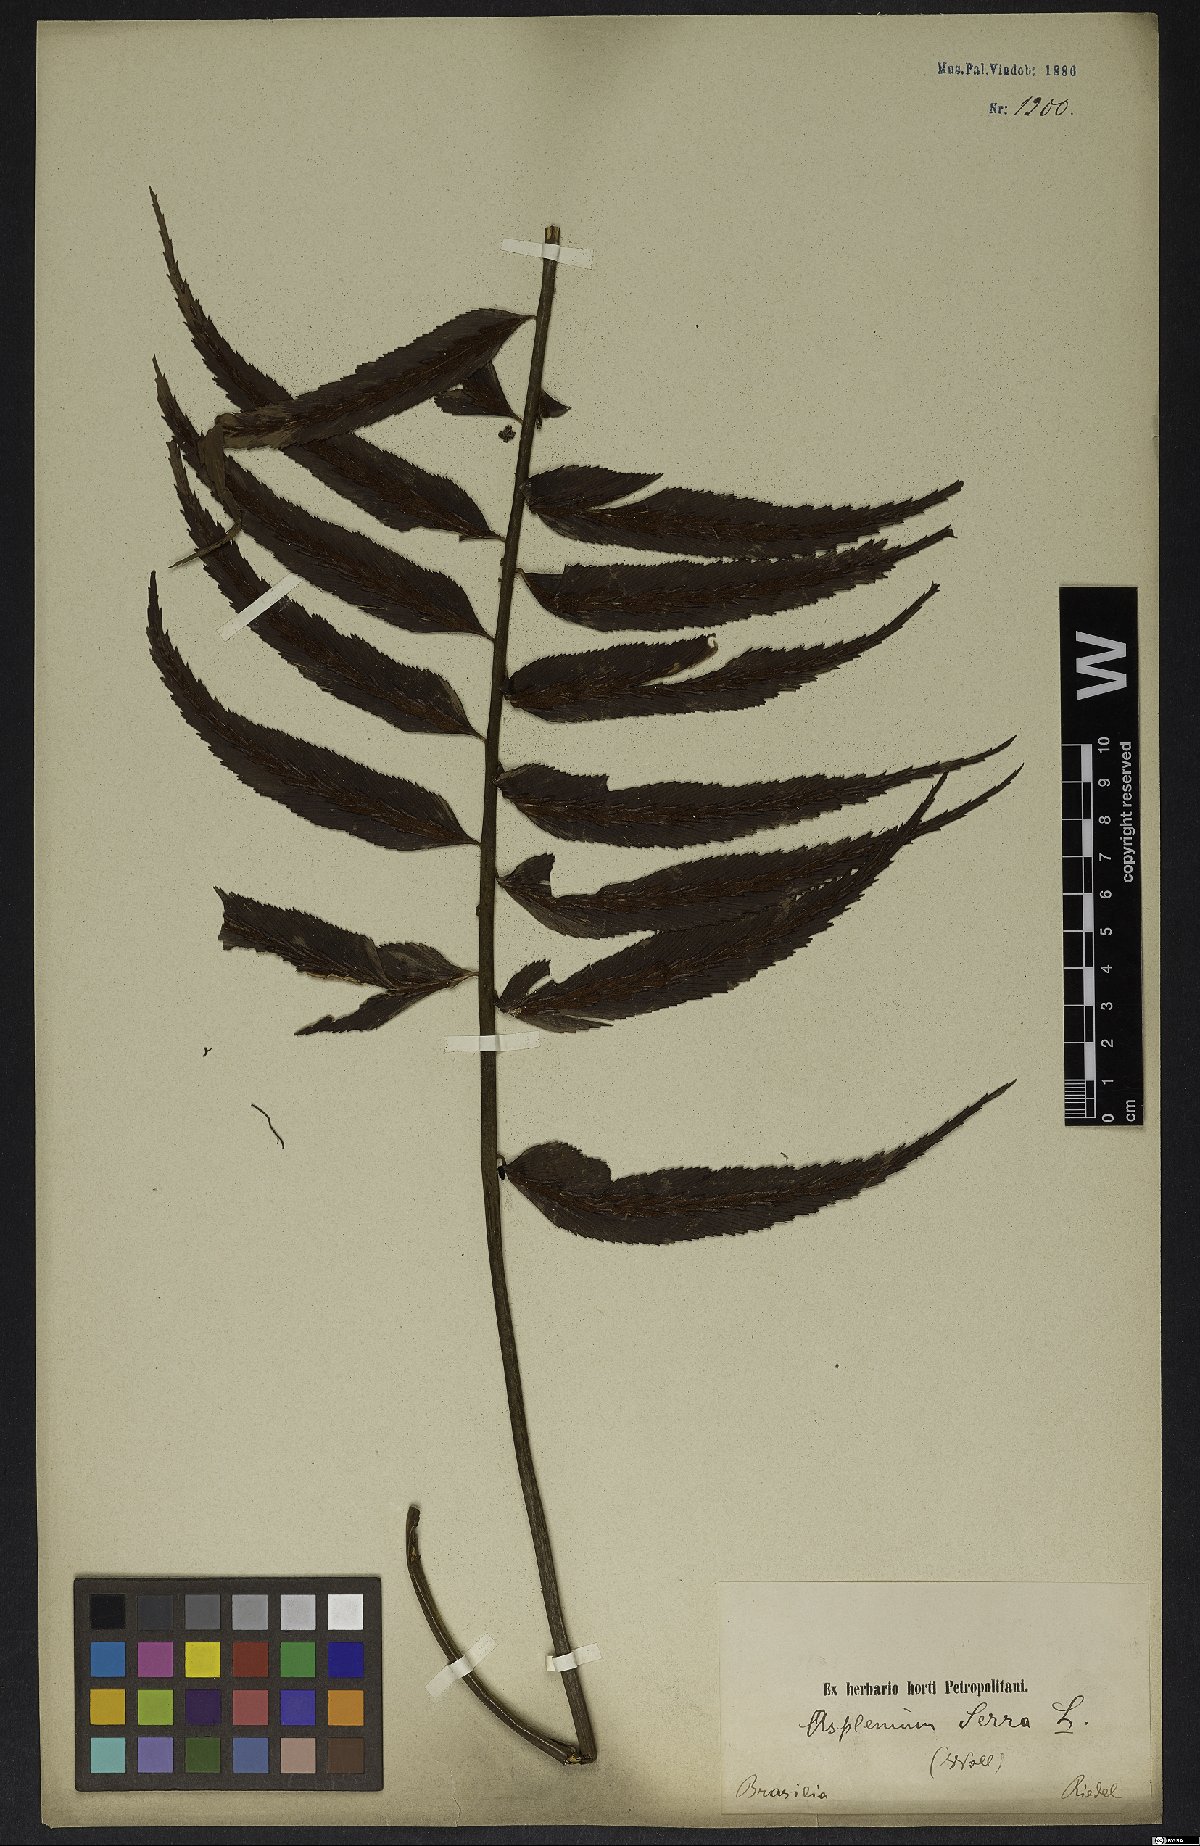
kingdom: Plantae
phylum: Tracheophyta
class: Polypodiopsida
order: Polypodiales
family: Aspleniaceae
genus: Asplenium
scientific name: Asplenium serra
